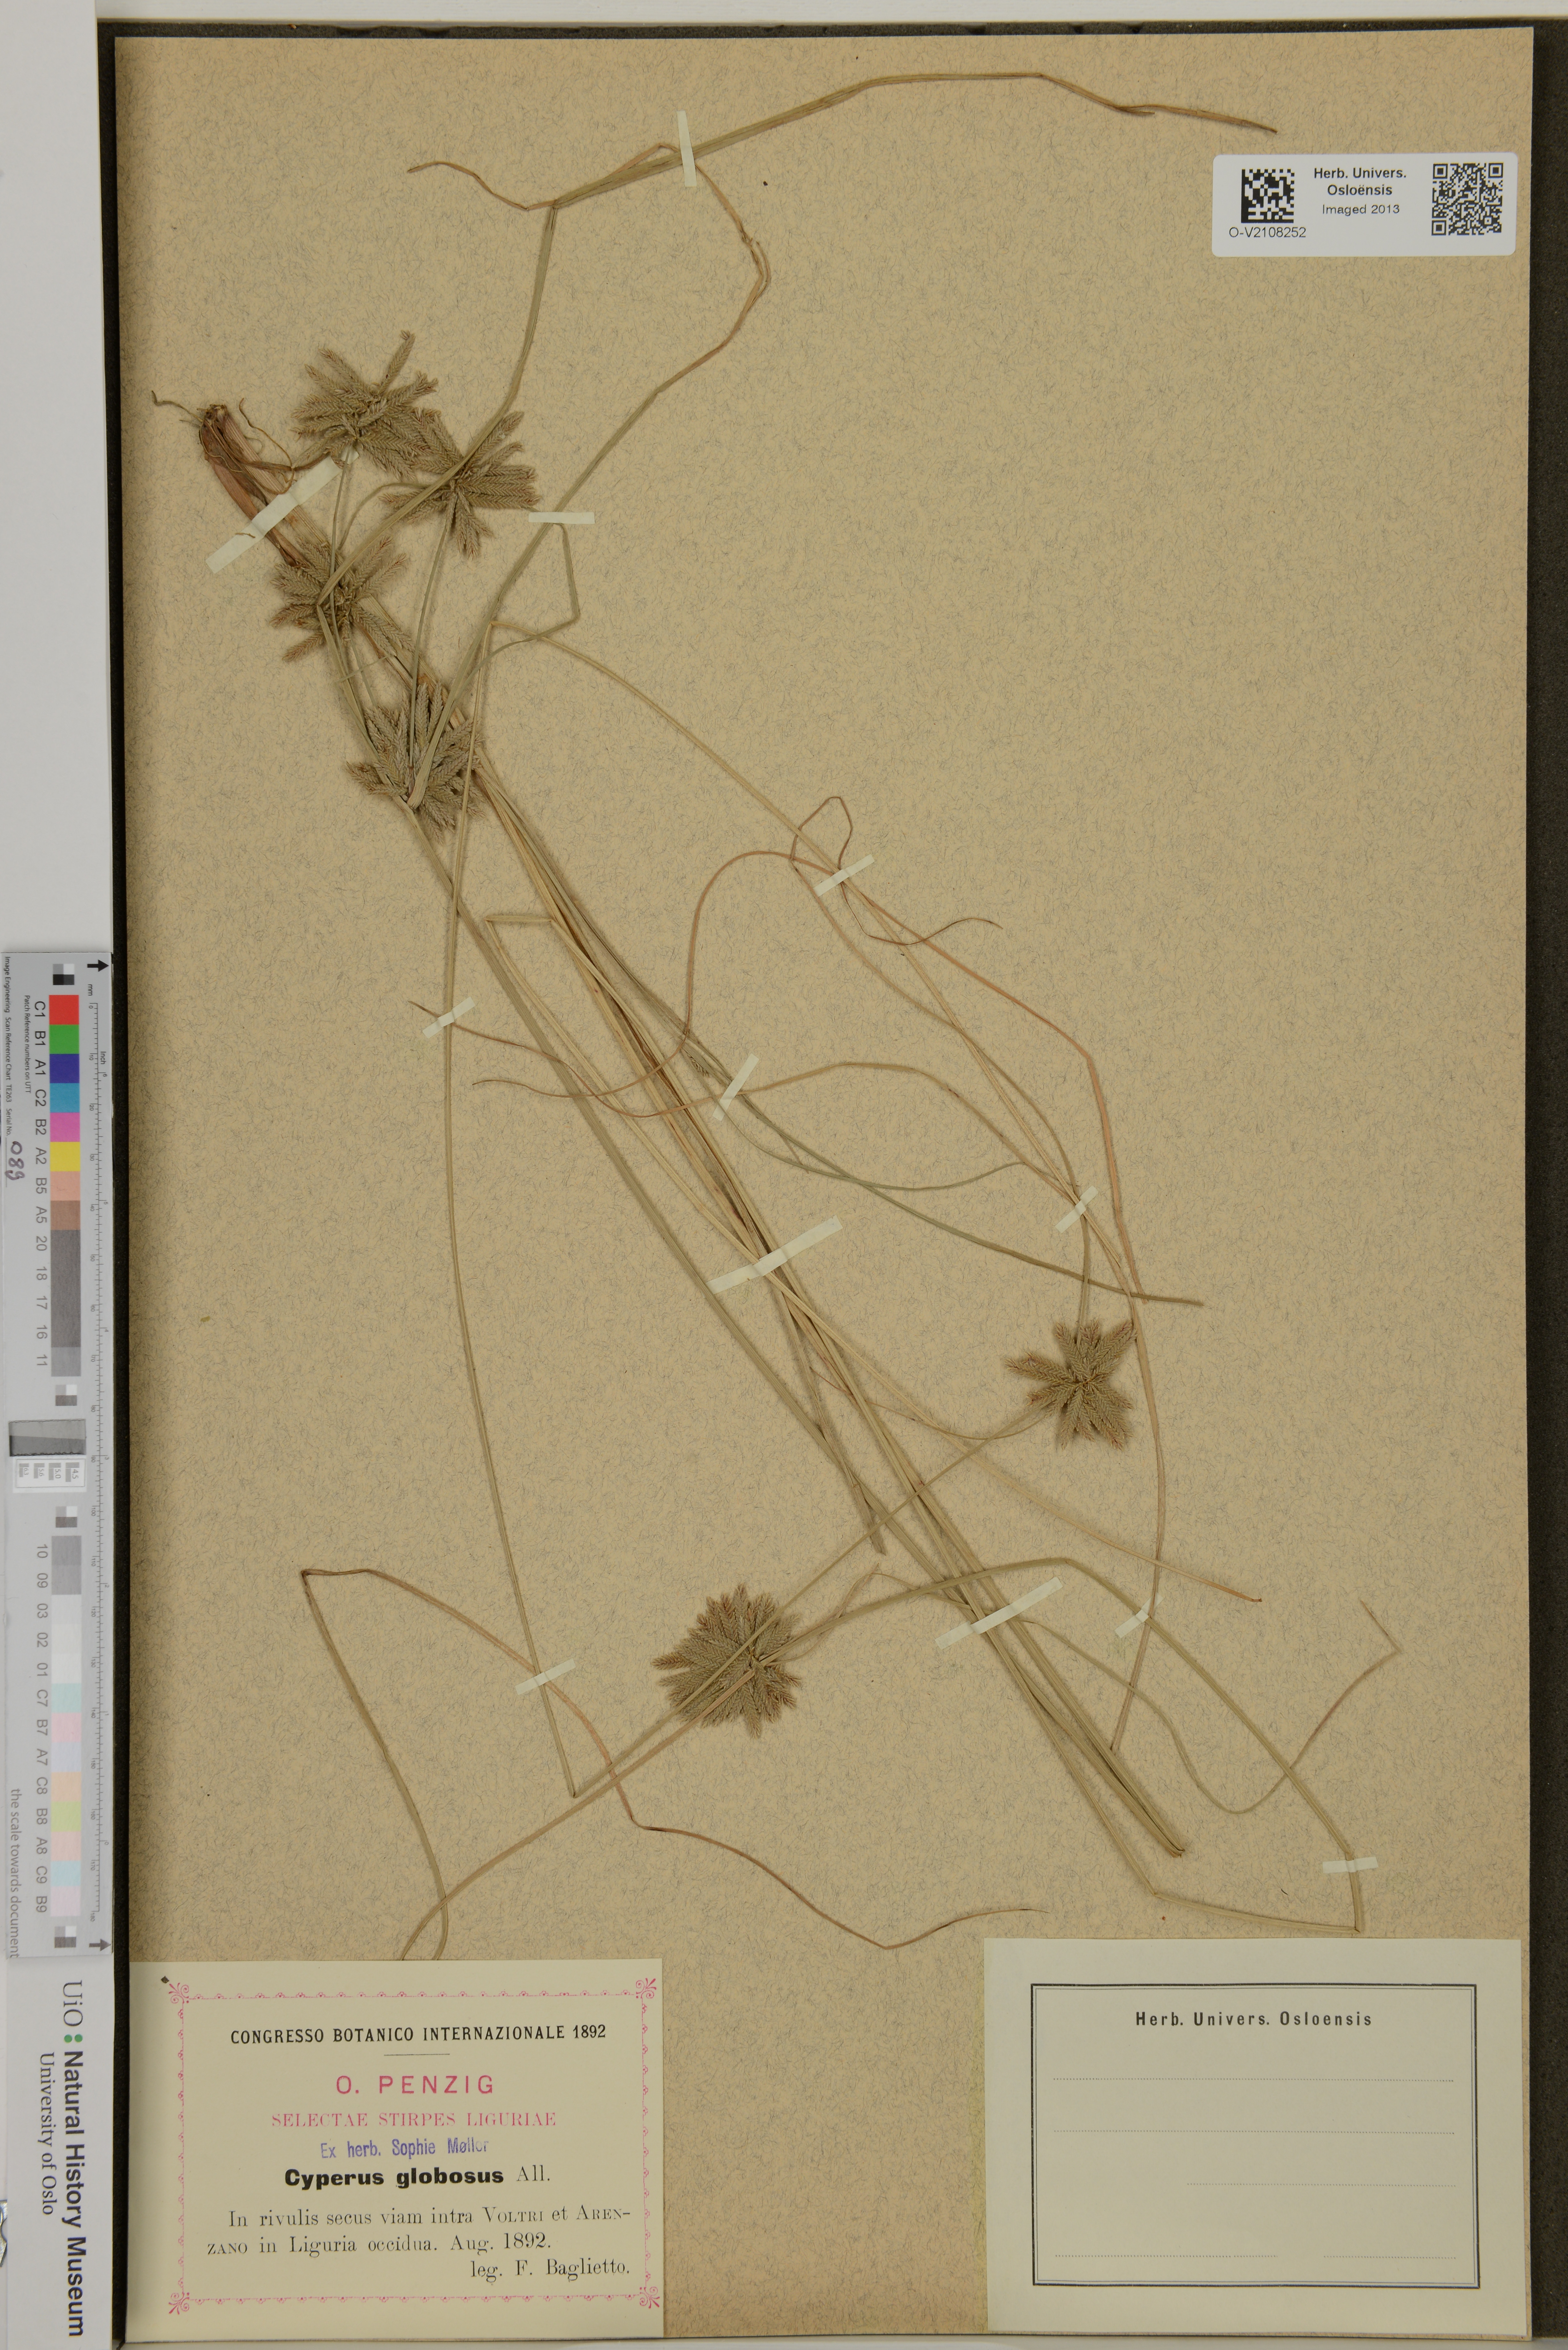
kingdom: Plantae
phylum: Tracheophyta
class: Liliopsida
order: Poales
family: Cyperaceae
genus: Cyperus
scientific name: Cyperus globosus
